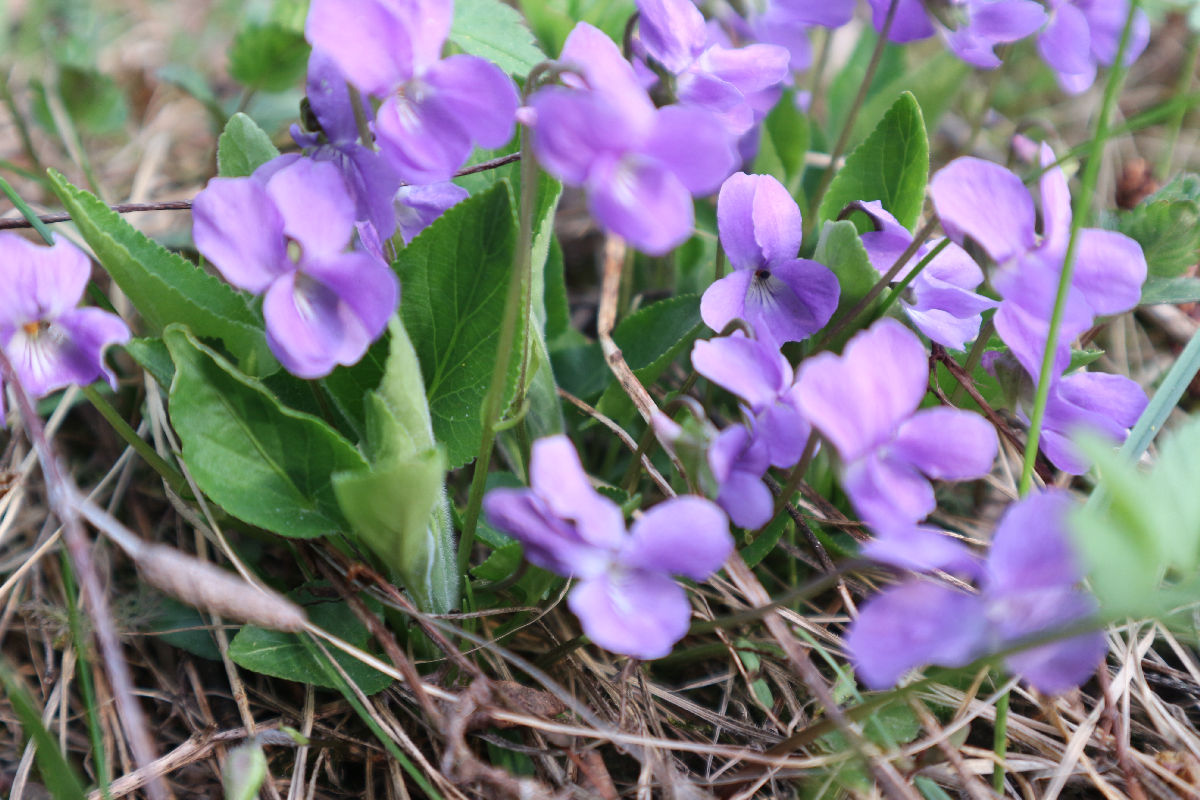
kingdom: Plantae
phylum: Tracheophyta
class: Magnoliopsida
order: Malpighiales
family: Violaceae
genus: Viola
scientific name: Viola hirta
